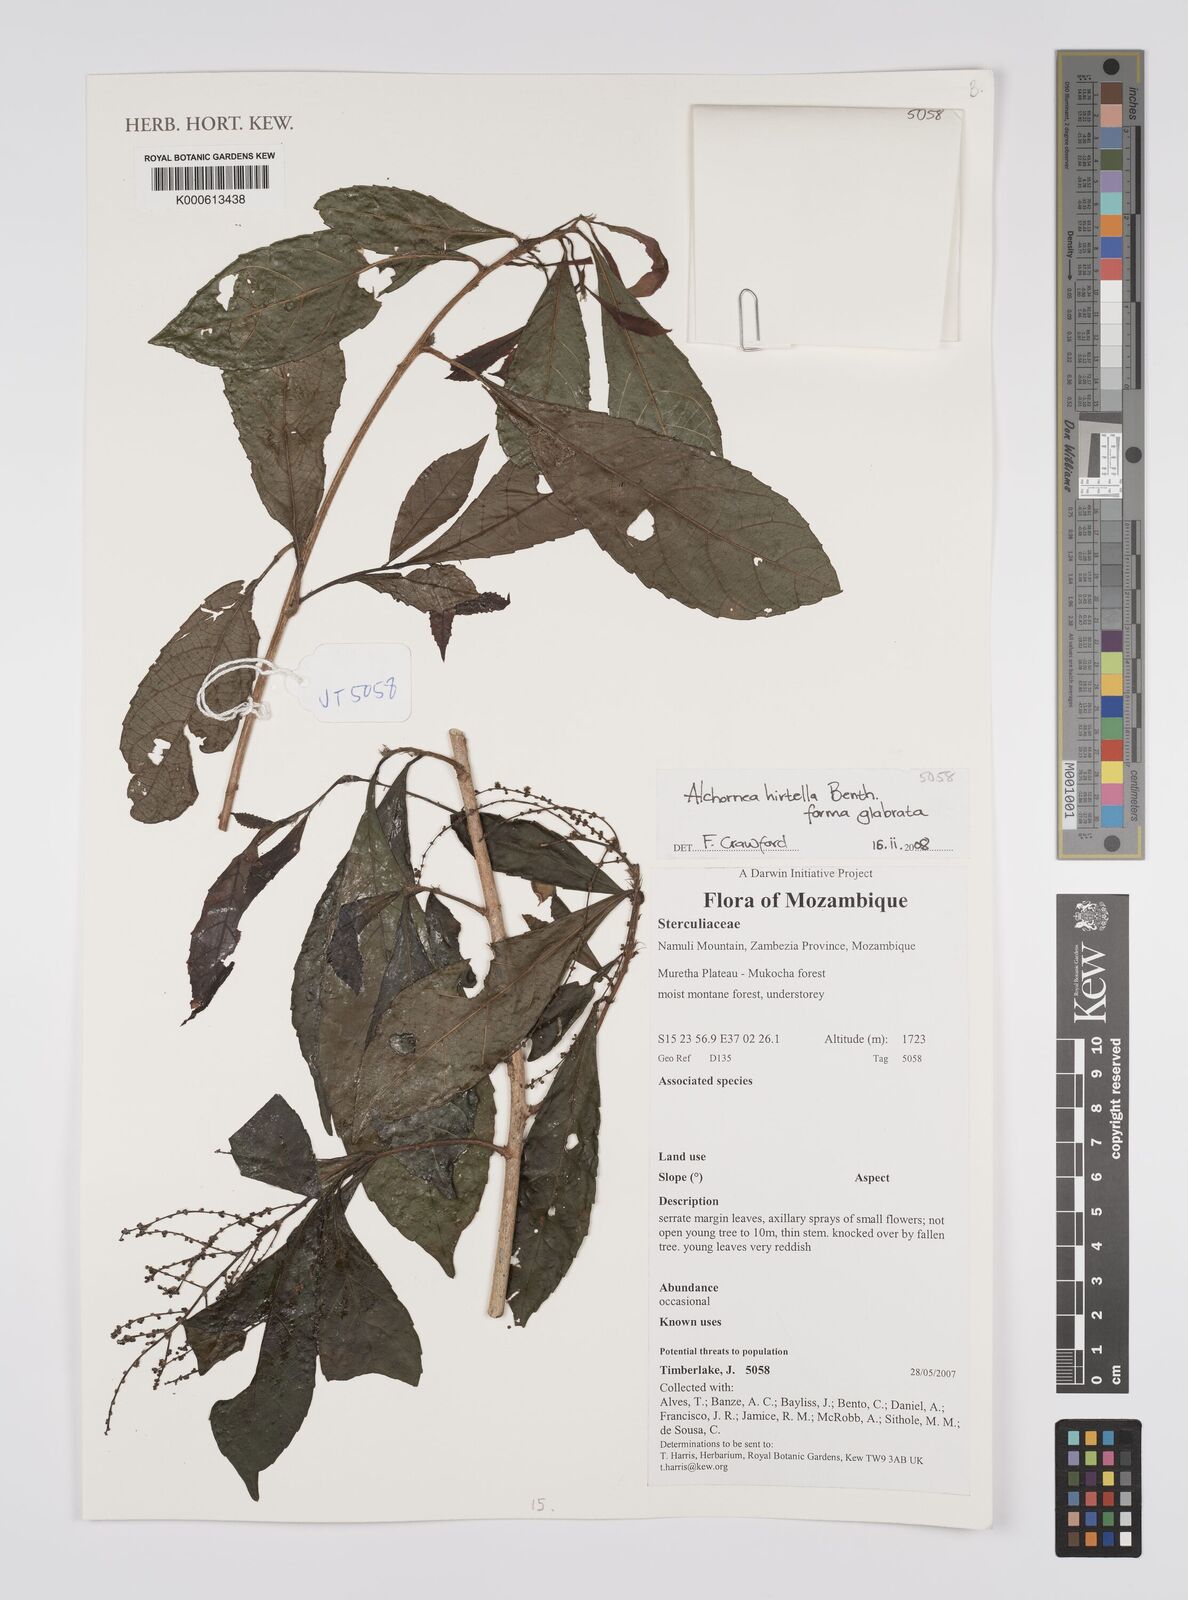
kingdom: Plantae
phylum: Tracheophyta
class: Magnoliopsida
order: Malpighiales
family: Euphorbiaceae
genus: Alchornea
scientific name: Alchornea hirtella
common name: Forest bead-string
